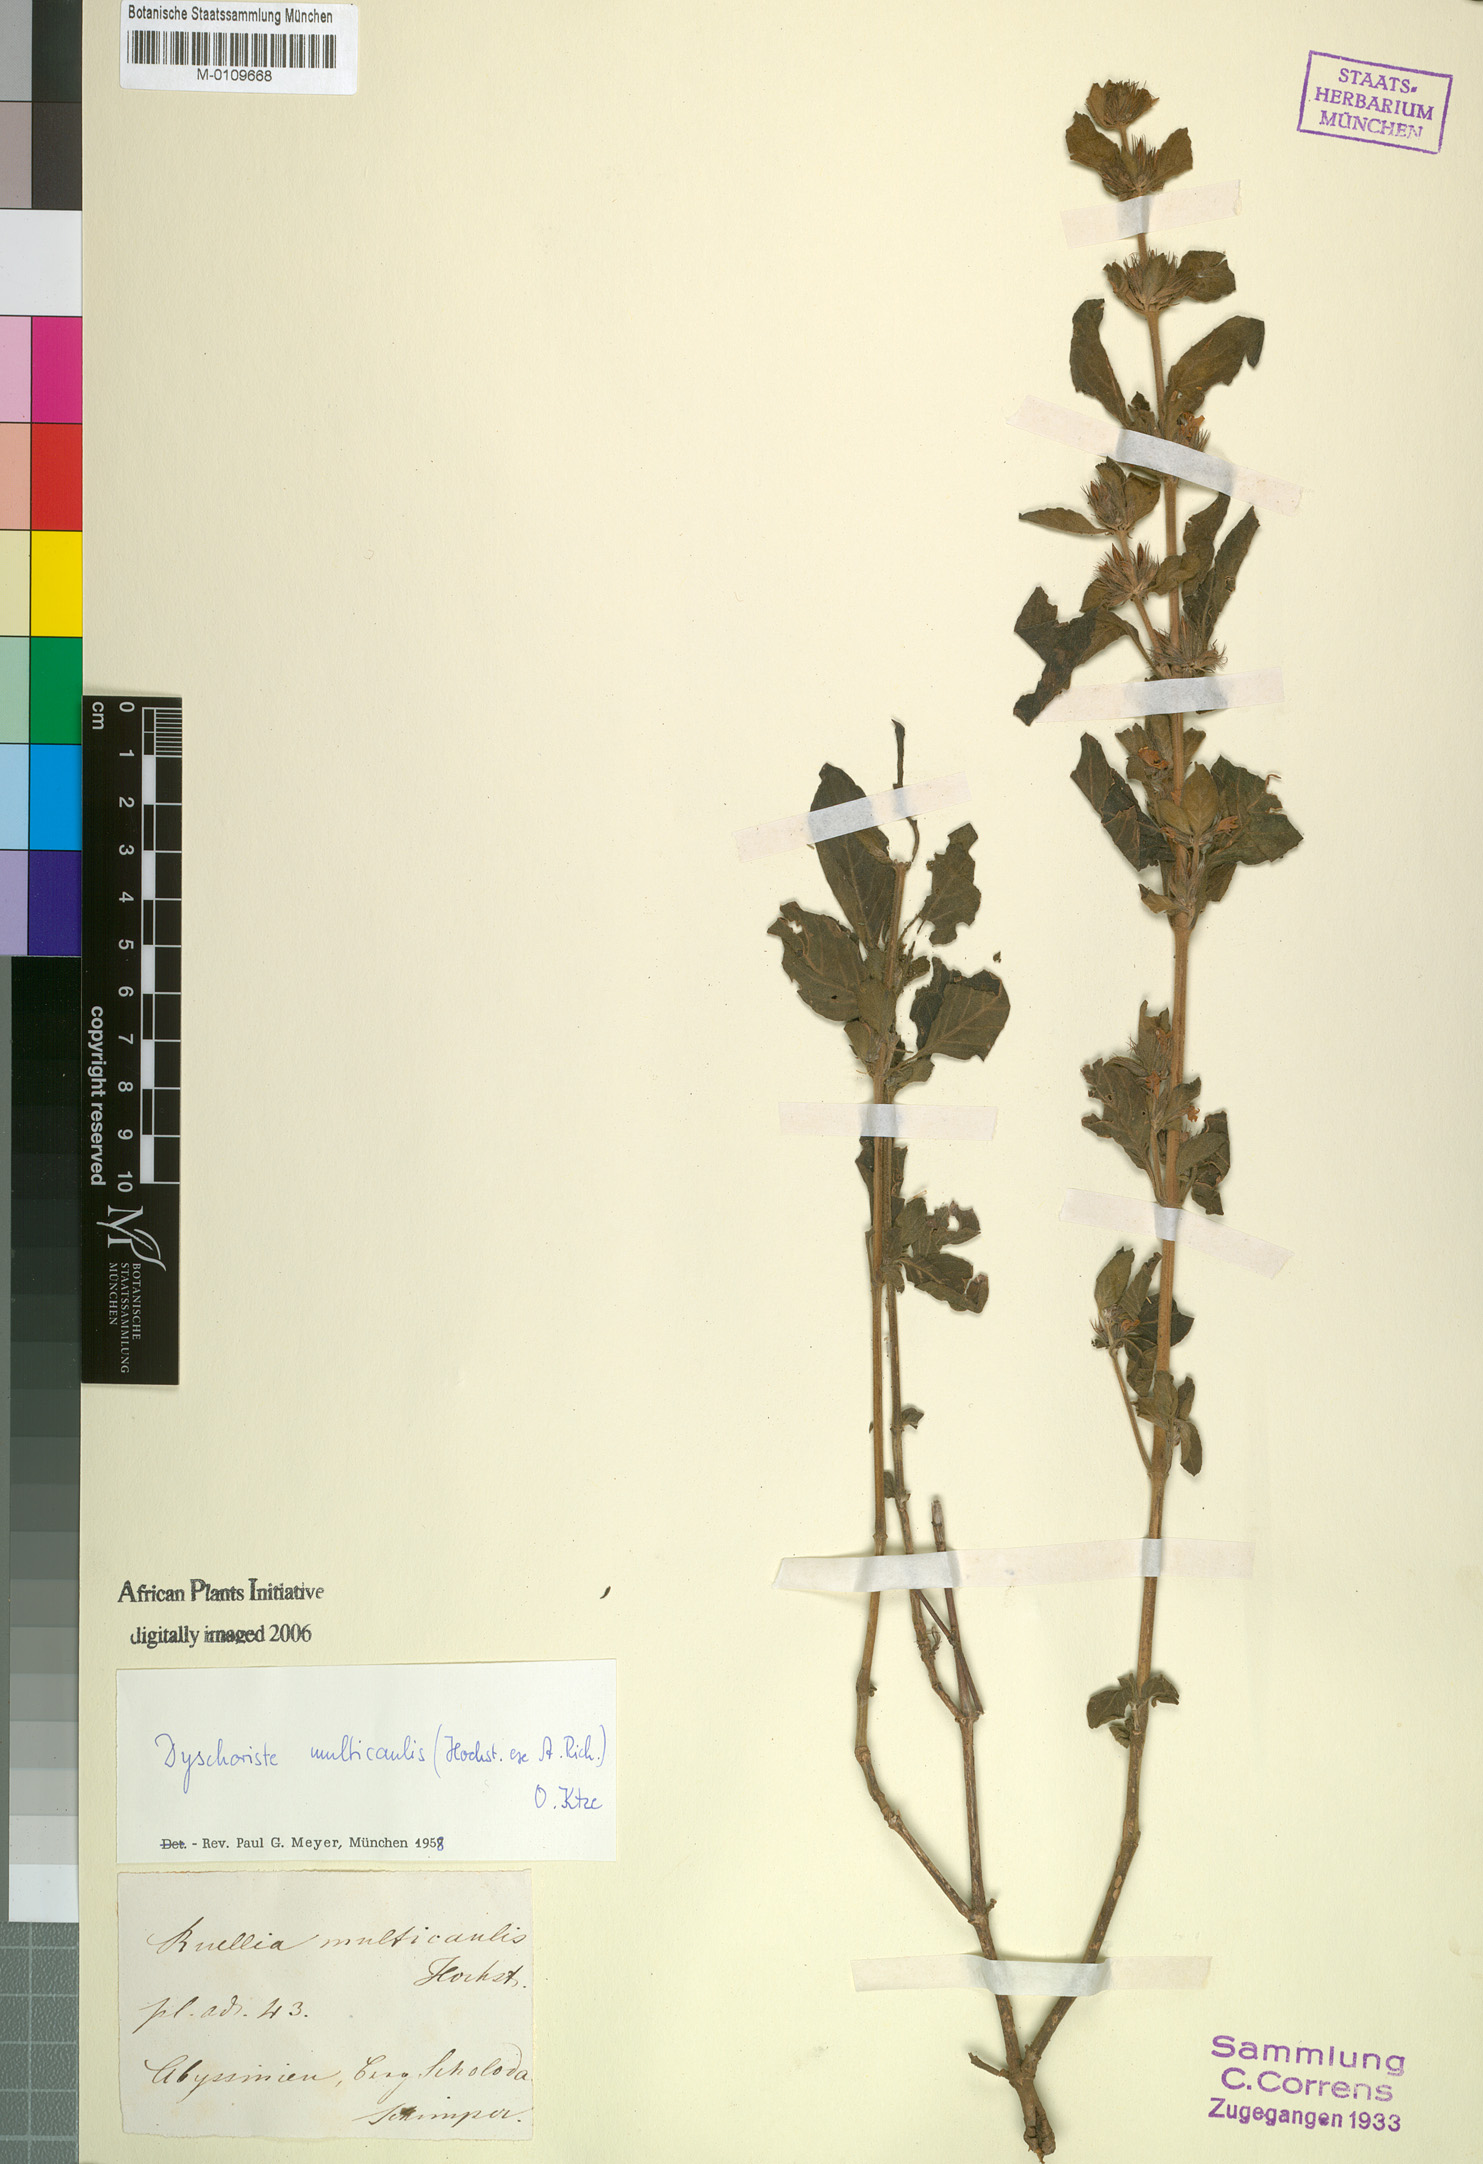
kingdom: Plantae
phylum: Tracheophyta
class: Magnoliopsida
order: Lamiales
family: Acanthaceae
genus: Dyschoriste
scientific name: Dyschoriste multicaulis
